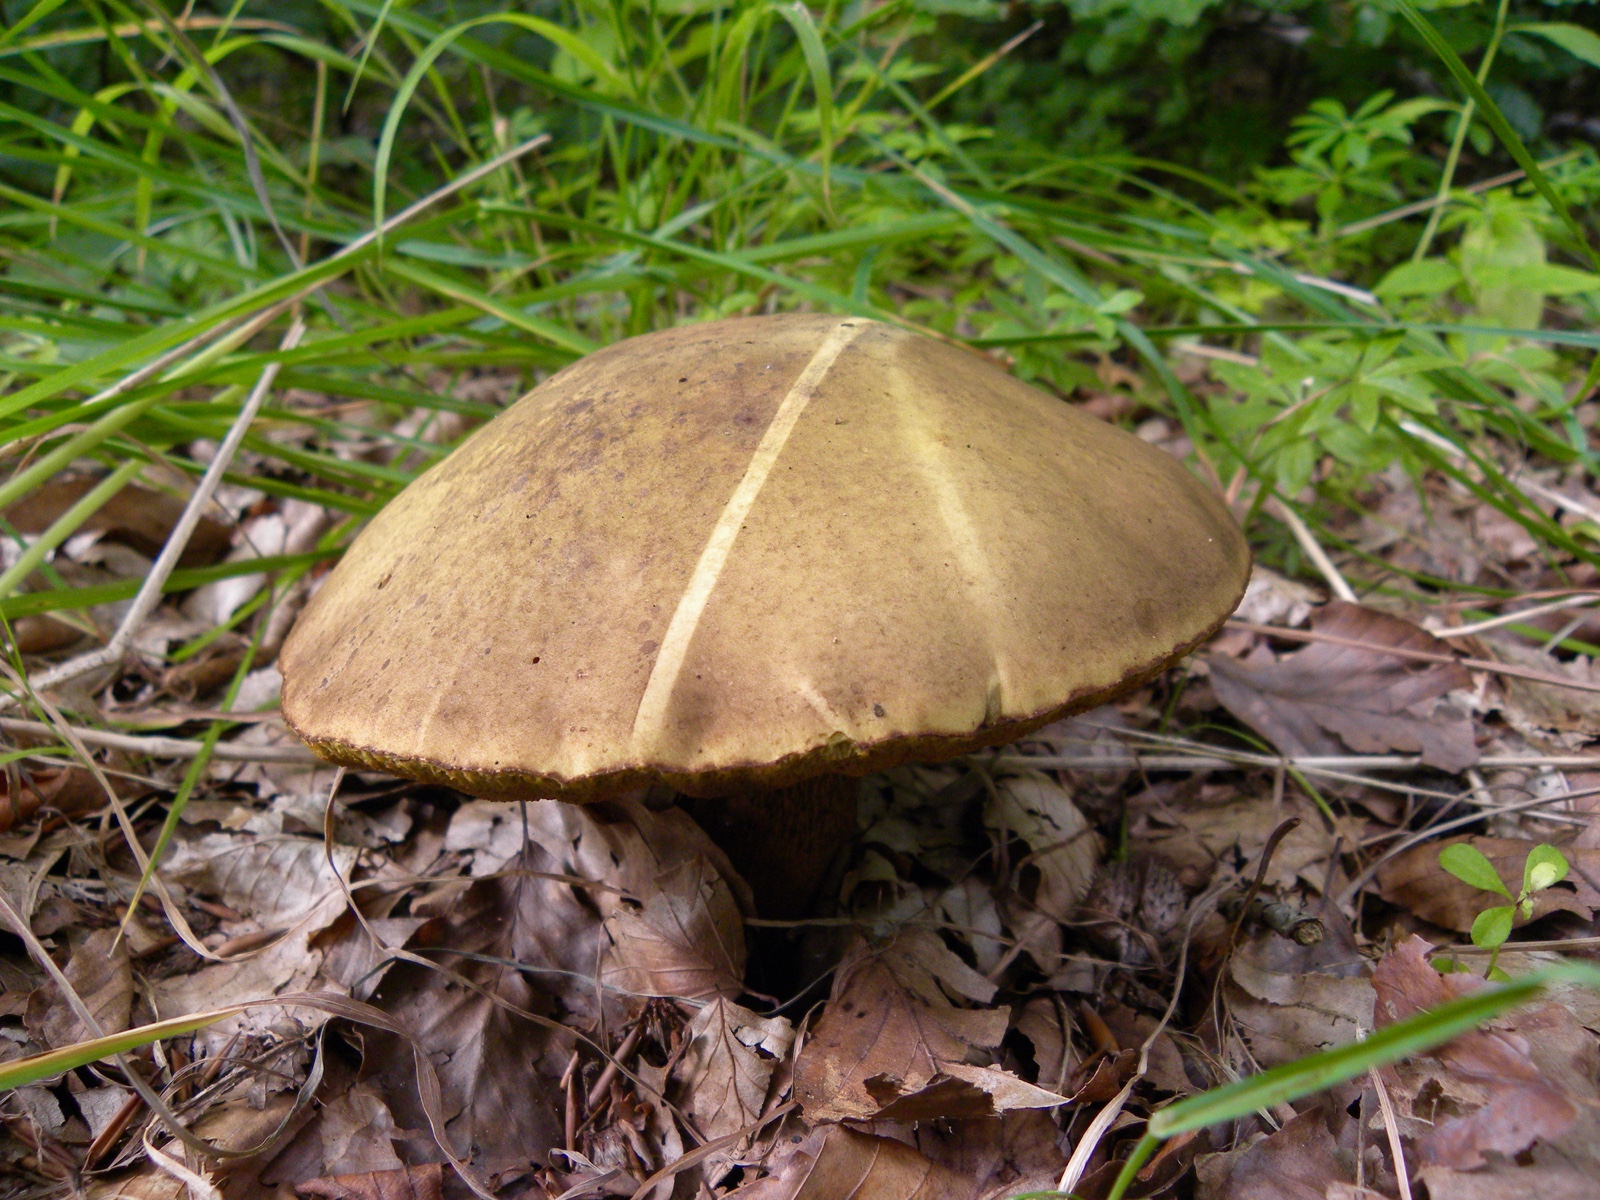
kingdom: Fungi
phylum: Basidiomycota
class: Agaricomycetes
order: Boletales
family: Boletaceae
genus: Suillellus
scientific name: Suillellus luridus
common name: netstokket indigorørhat
